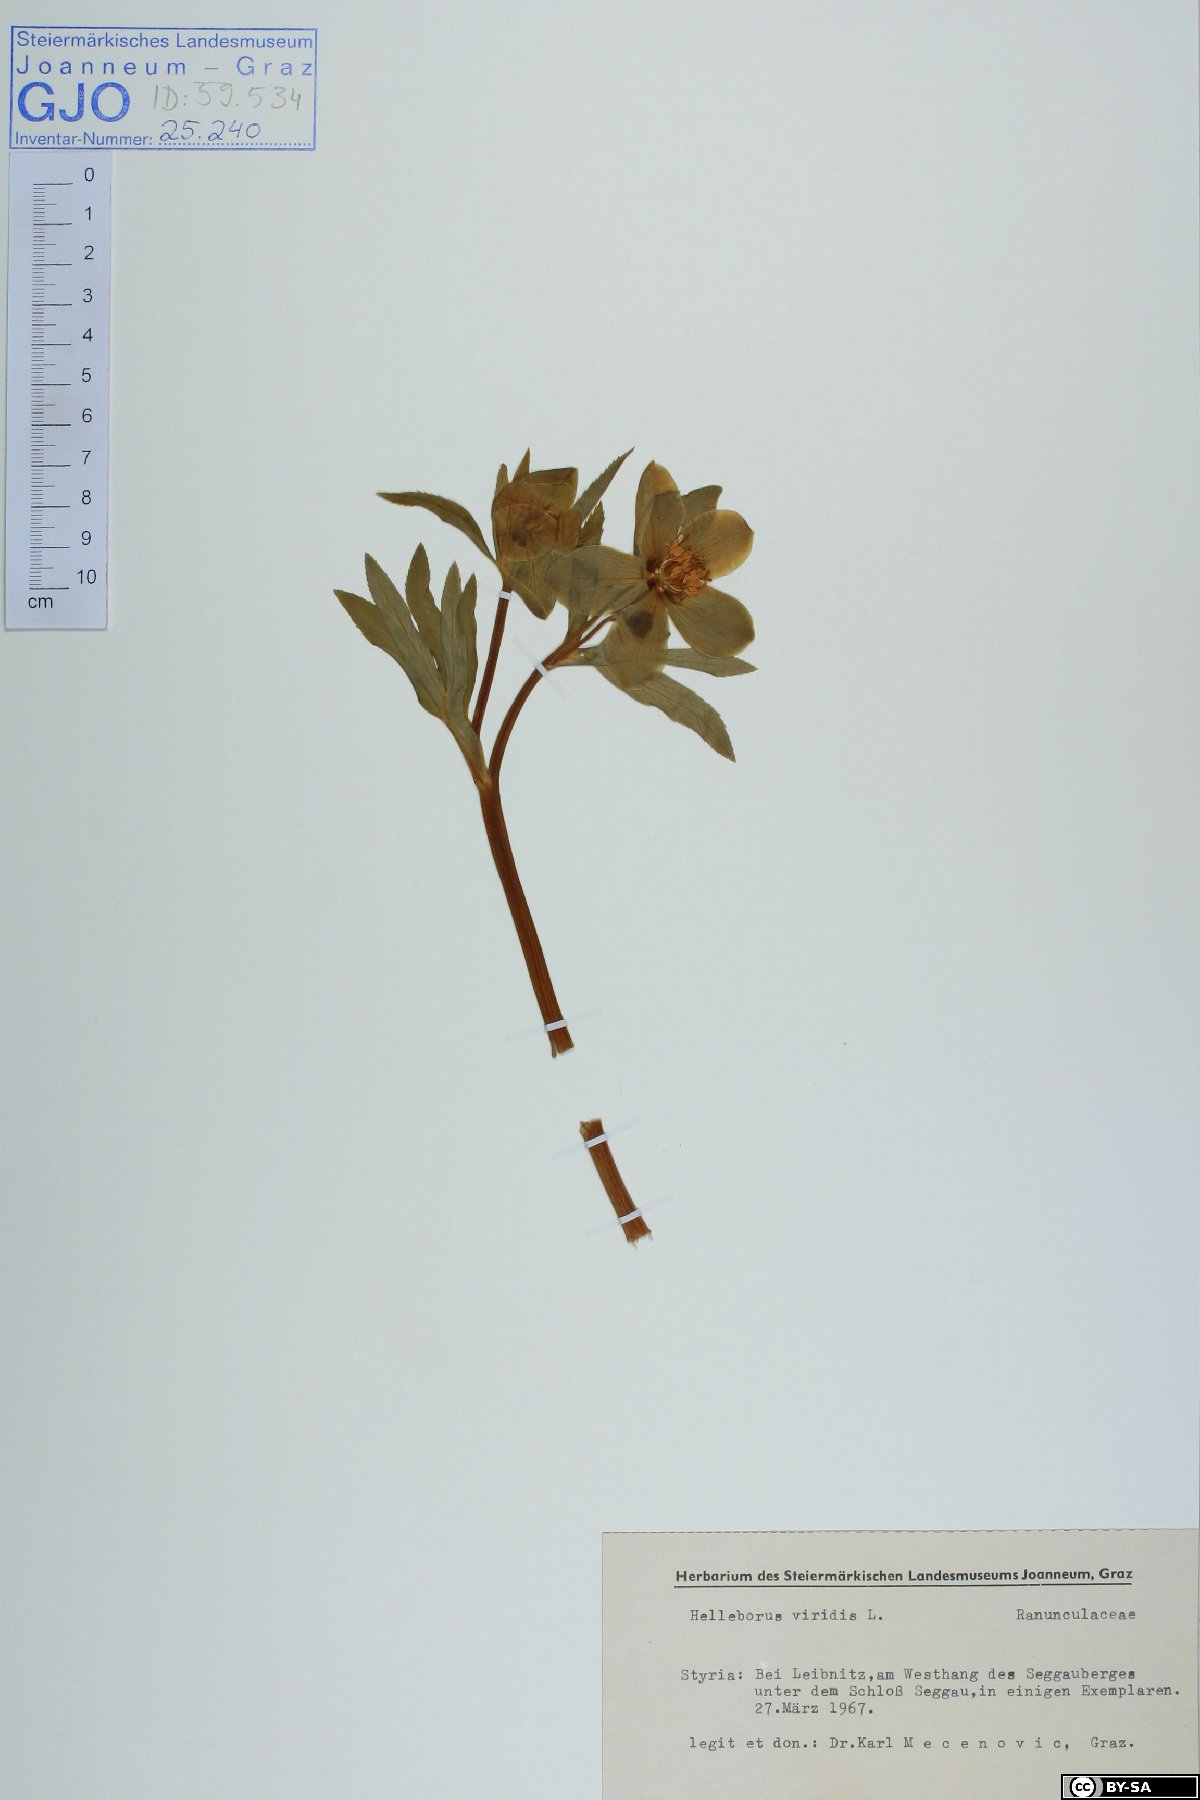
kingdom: Plantae
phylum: Tracheophyta
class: Magnoliopsida
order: Ranunculales
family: Ranunculaceae
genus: Helleborus
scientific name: Helleborus viridis
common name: Green hellebore
